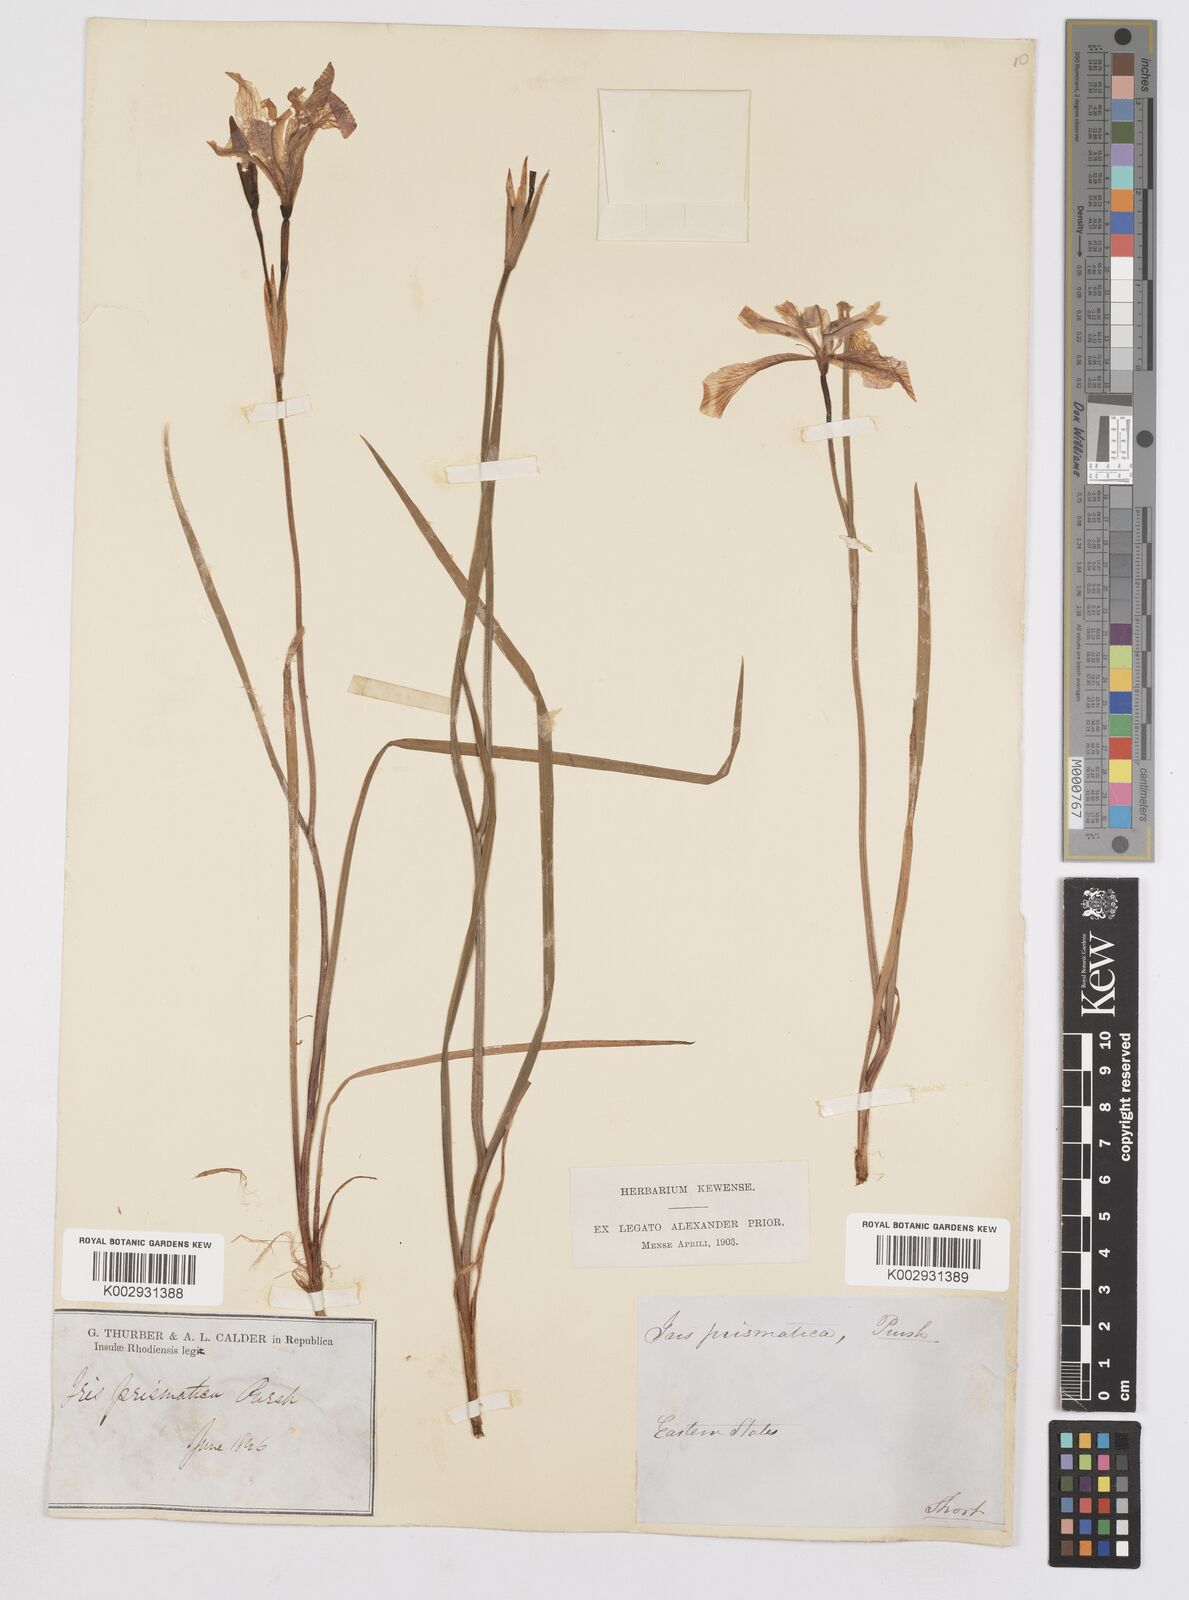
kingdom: Plantae
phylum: Tracheophyta
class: Liliopsida
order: Asparagales
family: Iridaceae
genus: Iris
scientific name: Iris prismatica
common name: Slender blue flag
